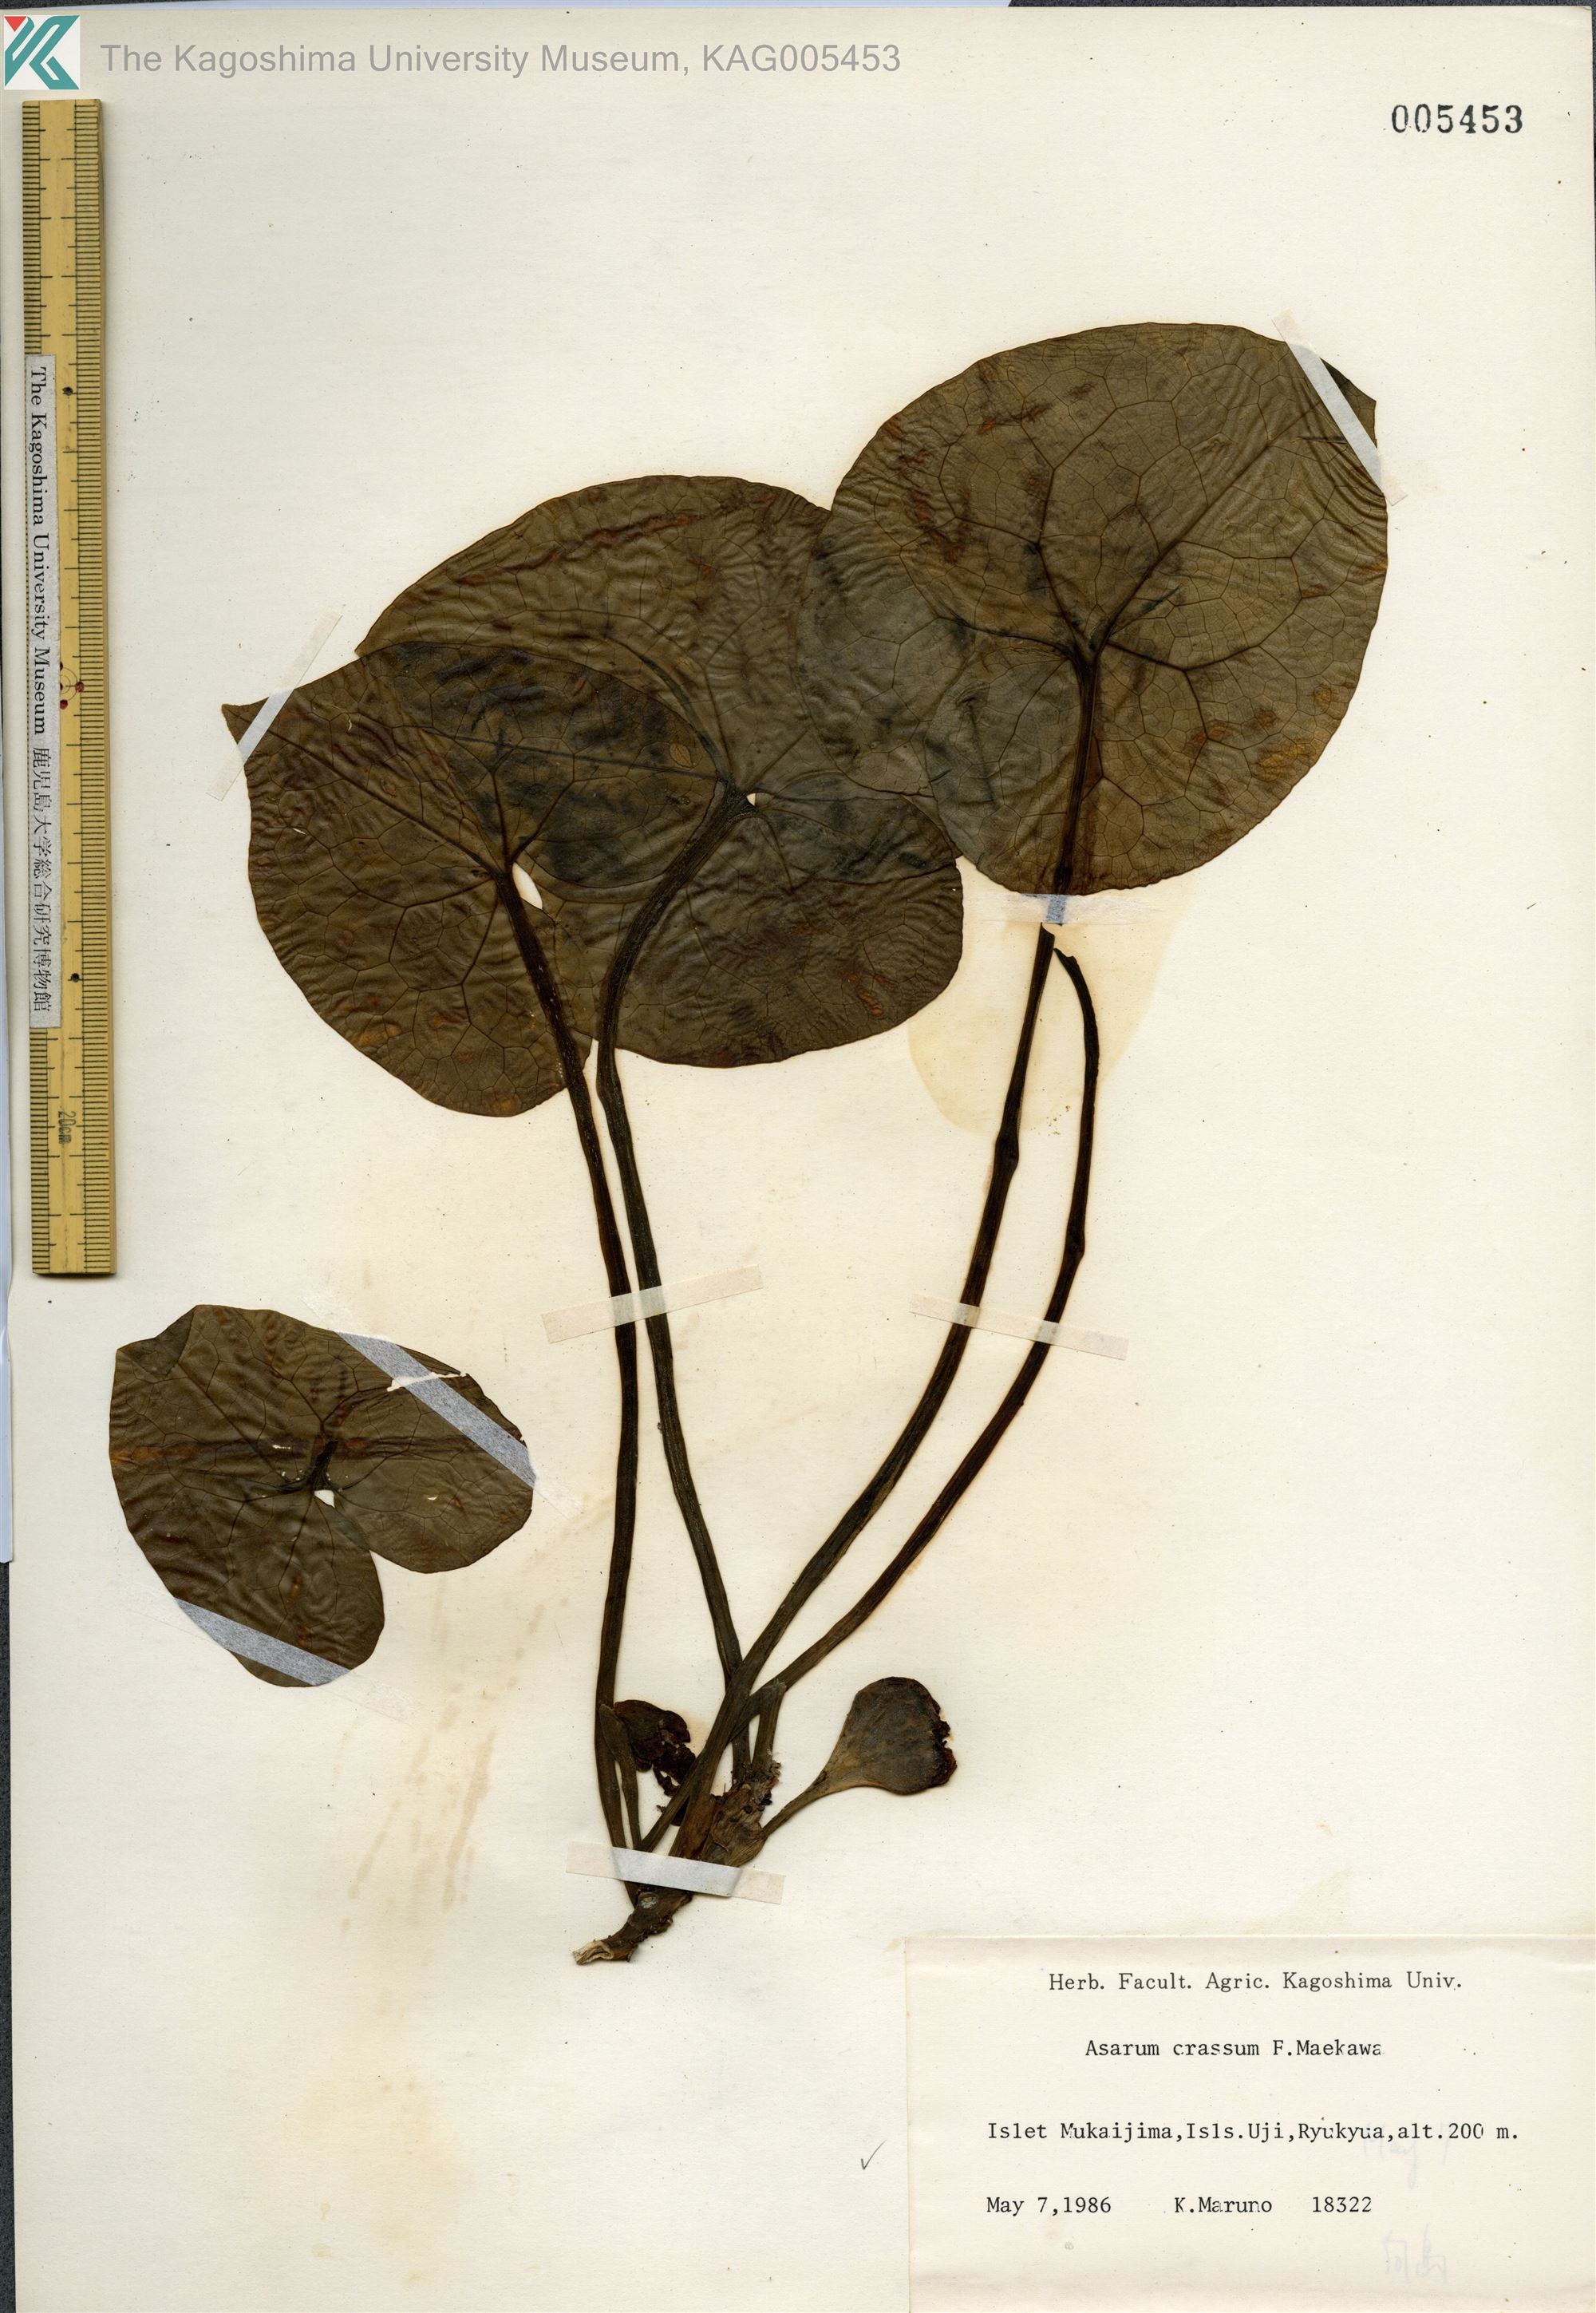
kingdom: Plantae
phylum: Tracheophyta
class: Magnoliopsida
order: Piperales
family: Aristolochiaceae
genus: Asarum
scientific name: Asarum crassum
